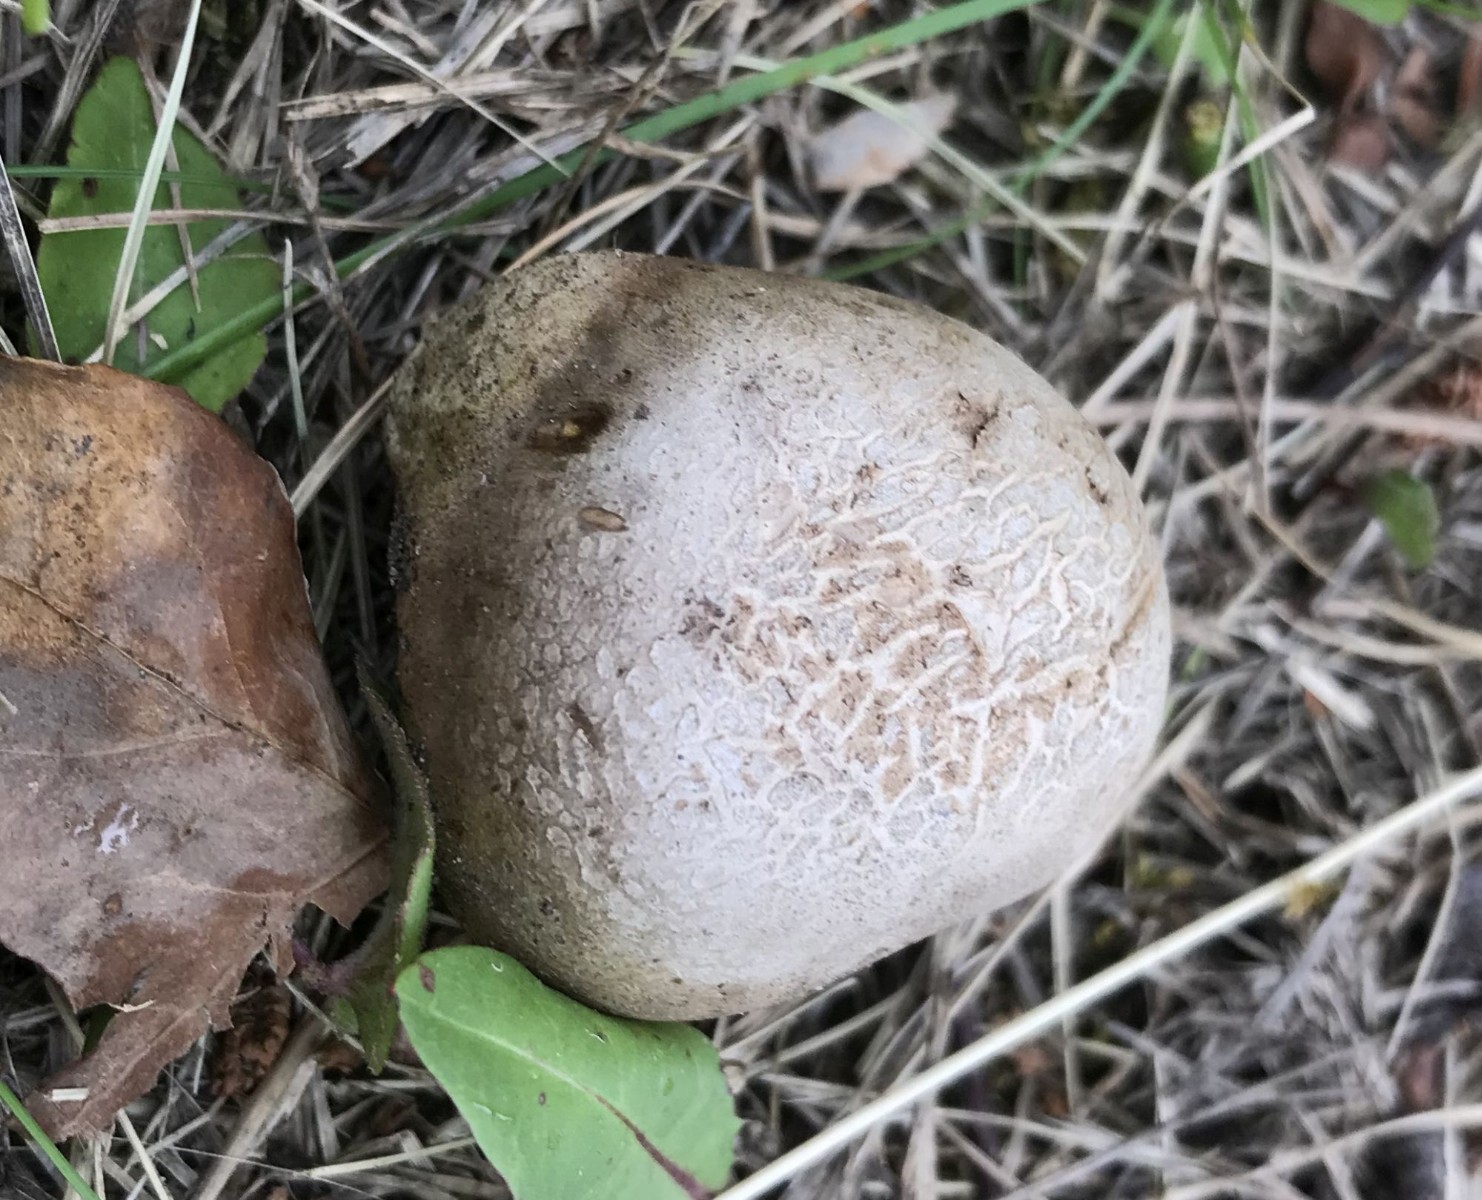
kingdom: Fungi
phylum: Basidiomycota
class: Agaricomycetes
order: Boletales
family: Sclerodermataceae
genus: Scleroderma
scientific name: Scleroderma
